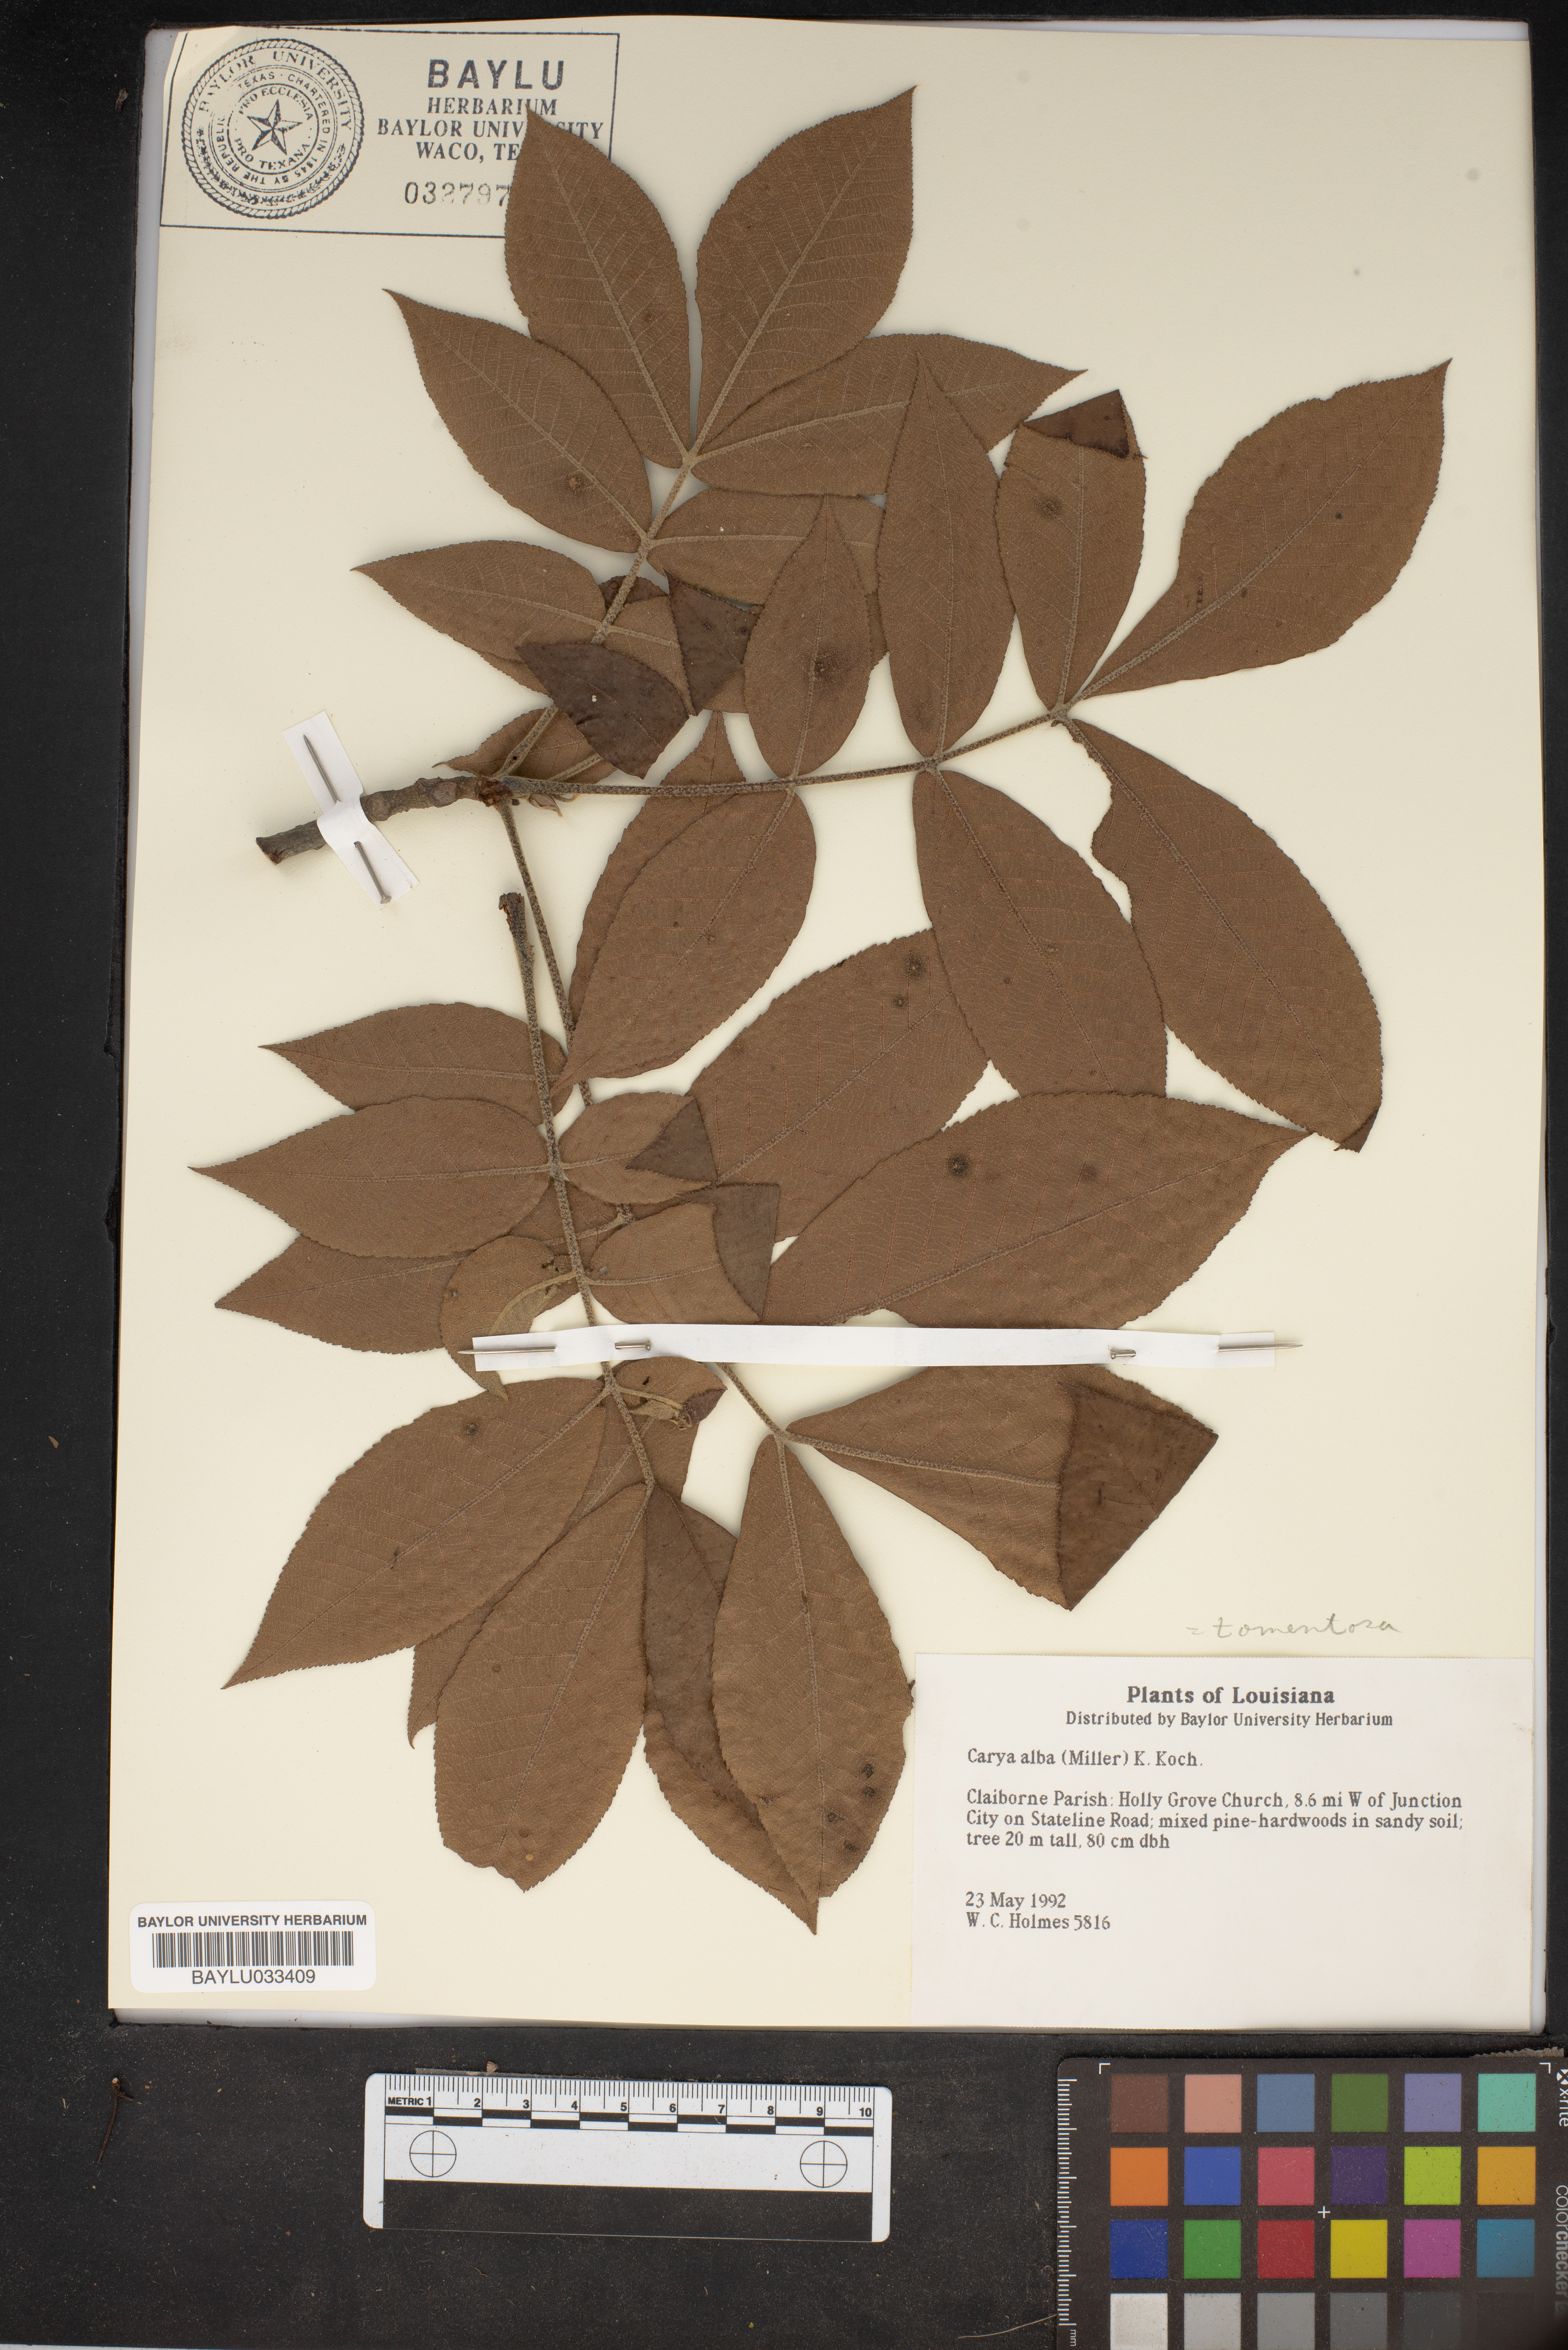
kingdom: Plantae
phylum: Tracheophyta
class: Magnoliopsida
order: Fagales
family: Juglandaceae
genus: Carya
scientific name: Carya alba
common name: Mockernut hickory
